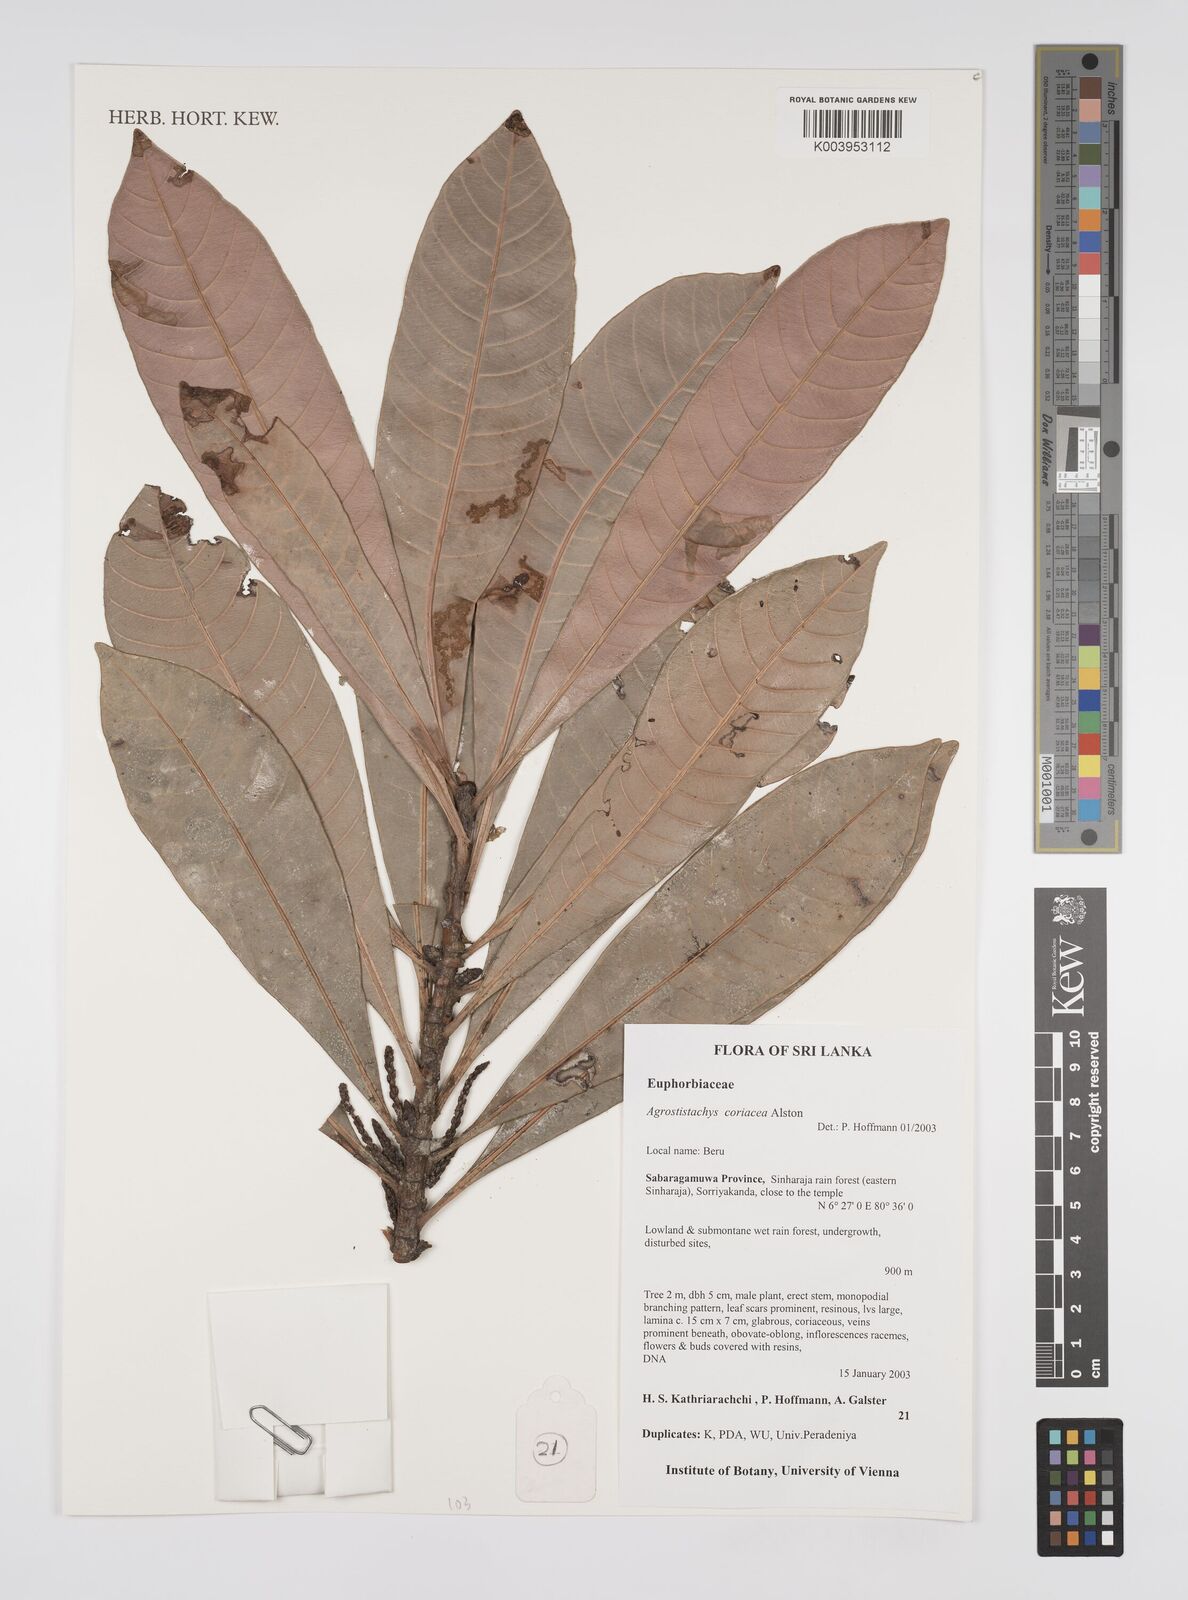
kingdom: Plantae
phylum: Tracheophyta
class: Magnoliopsida
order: Malpighiales
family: Euphorbiaceae
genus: Agrostistachys
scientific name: Agrostistachys borneensis
